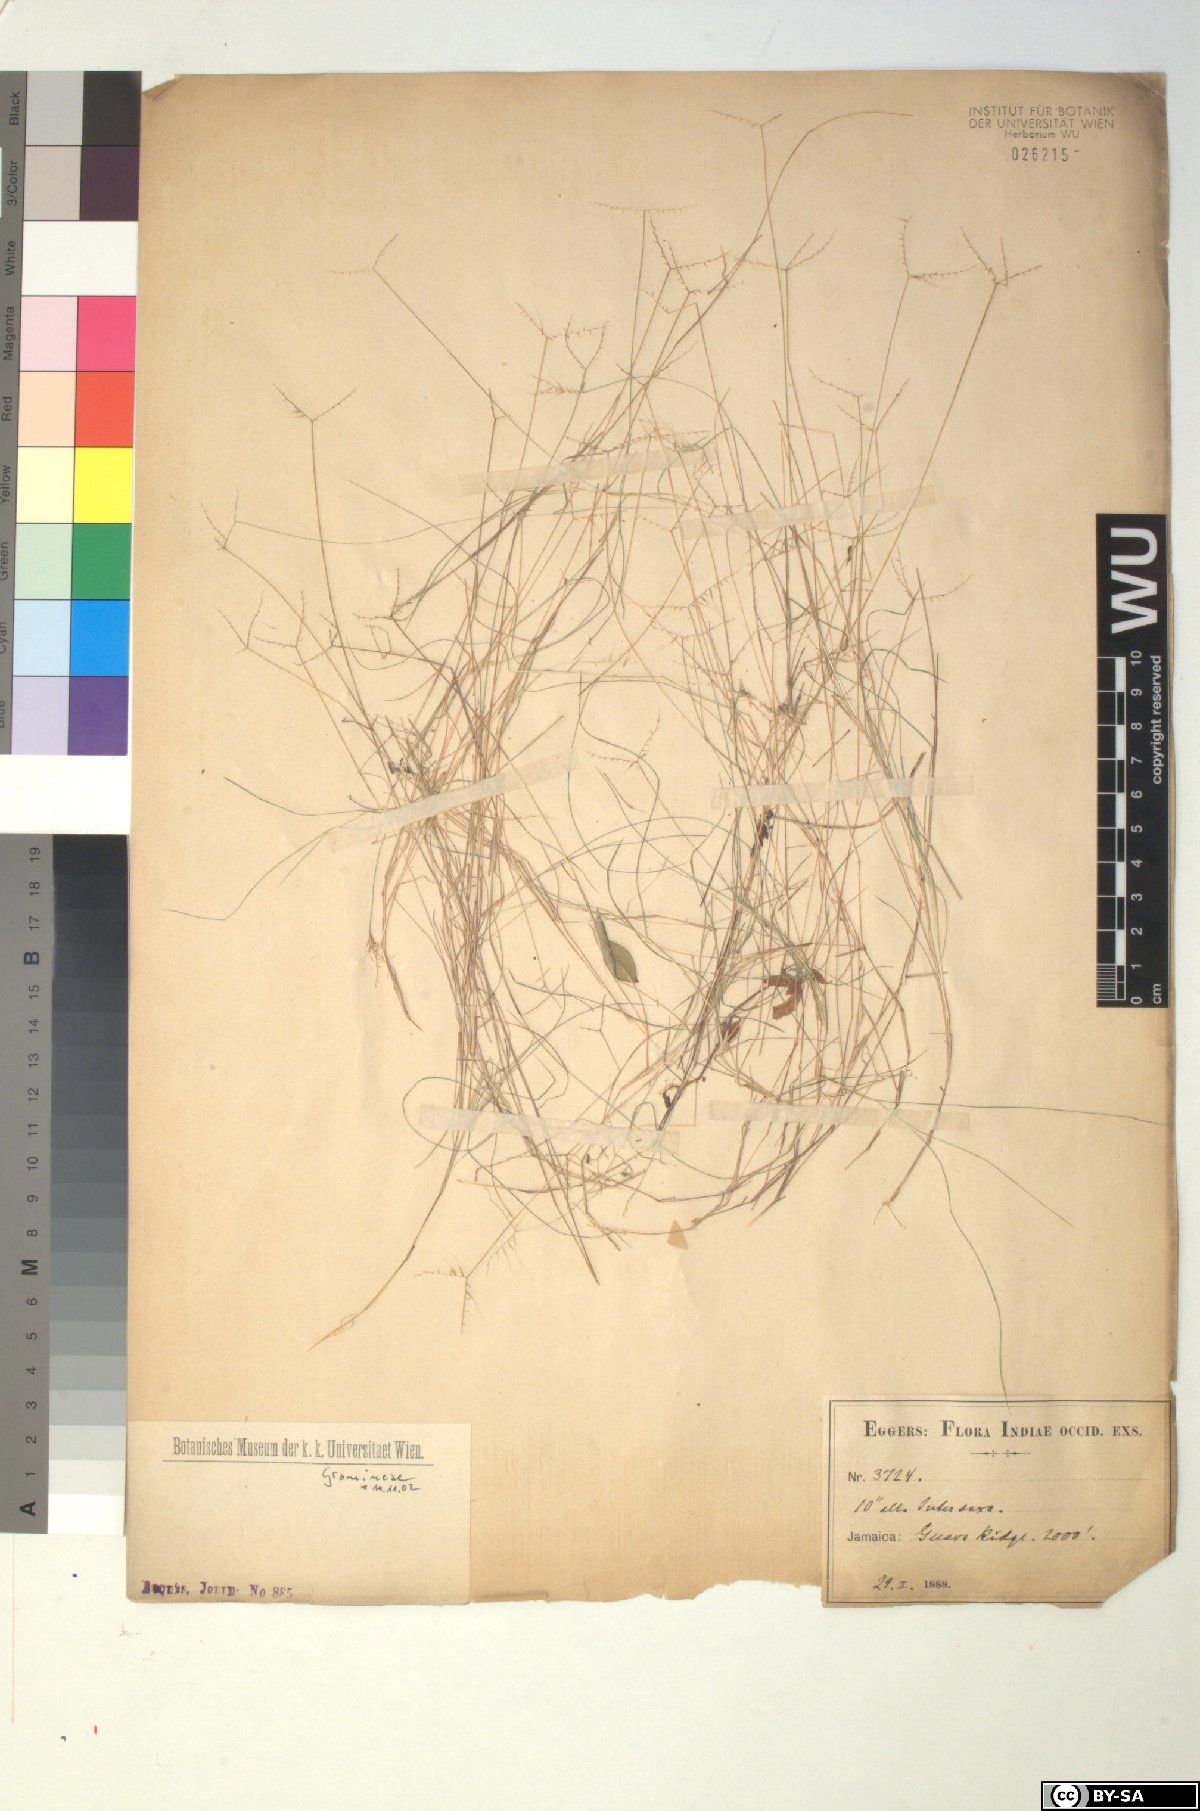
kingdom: Plantae
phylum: Tracheophyta
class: Liliopsida
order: Poales
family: Poaceae
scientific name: Poaceae
